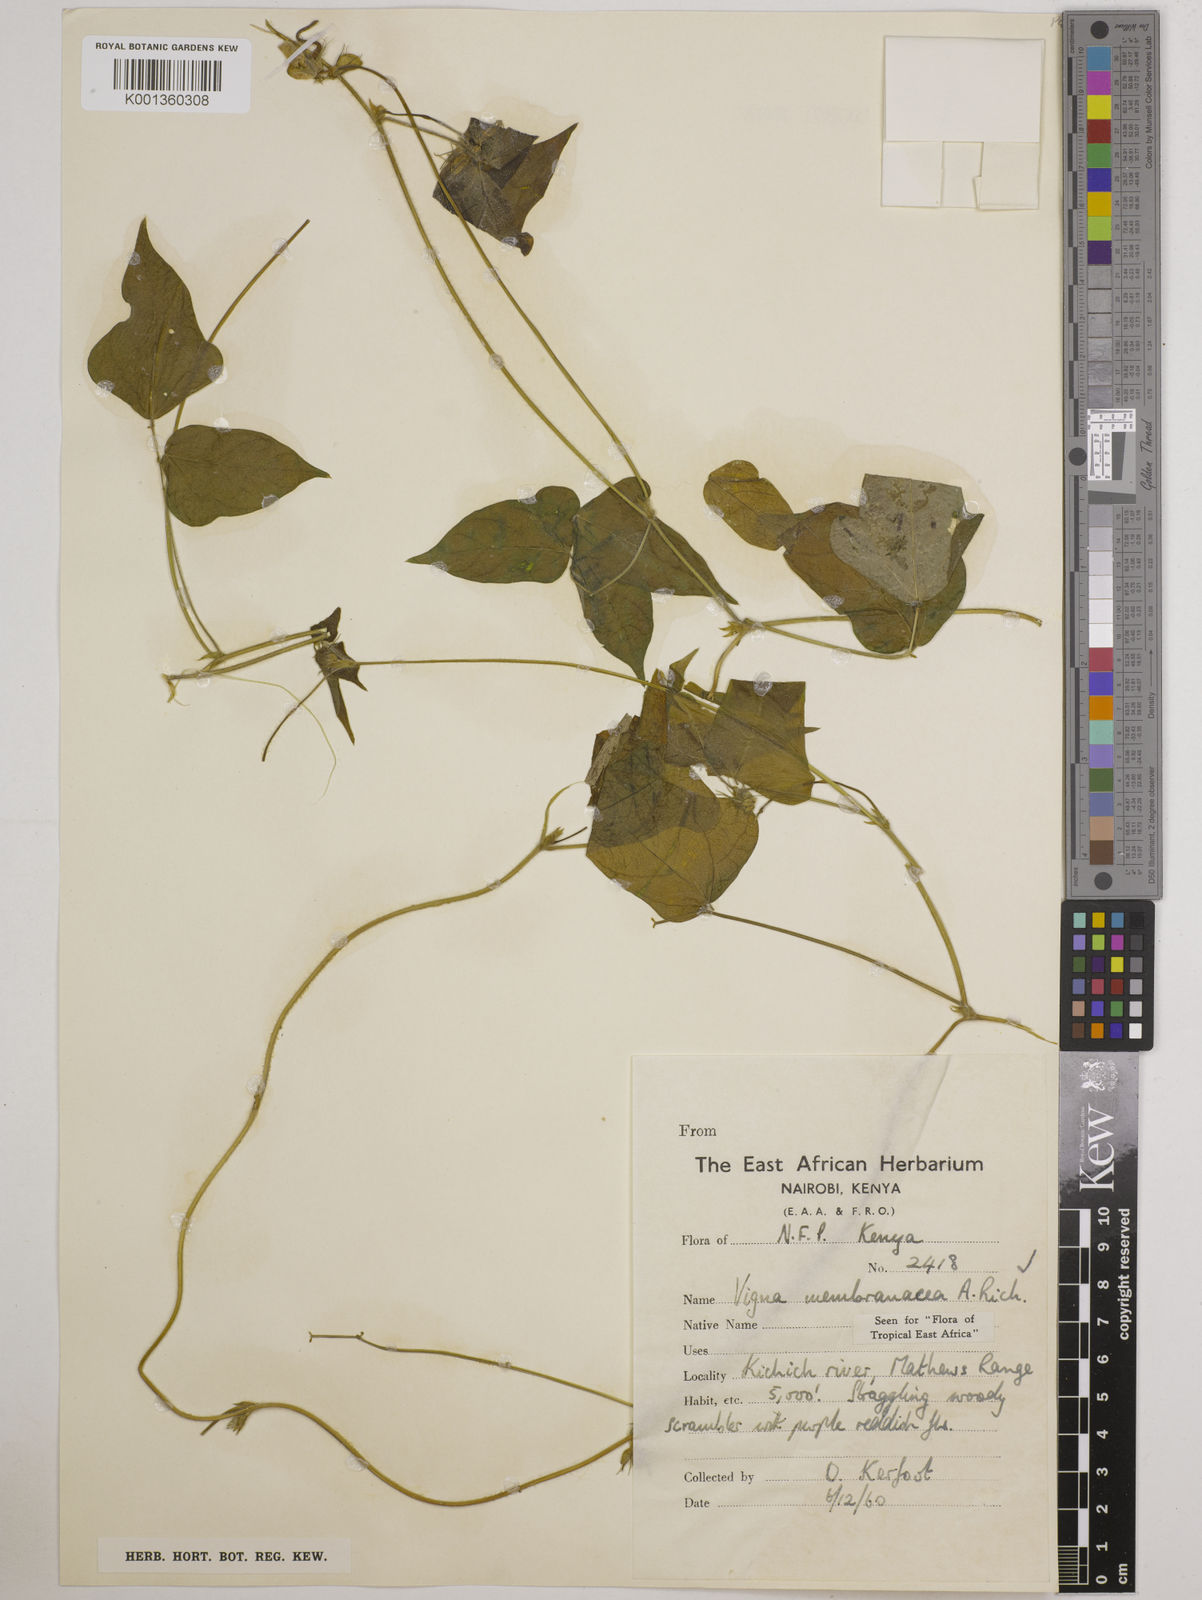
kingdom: Plantae
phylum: Tracheophyta
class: Magnoliopsida
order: Fabales
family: Fabaceae
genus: Vigna
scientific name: Vigna membranacea
